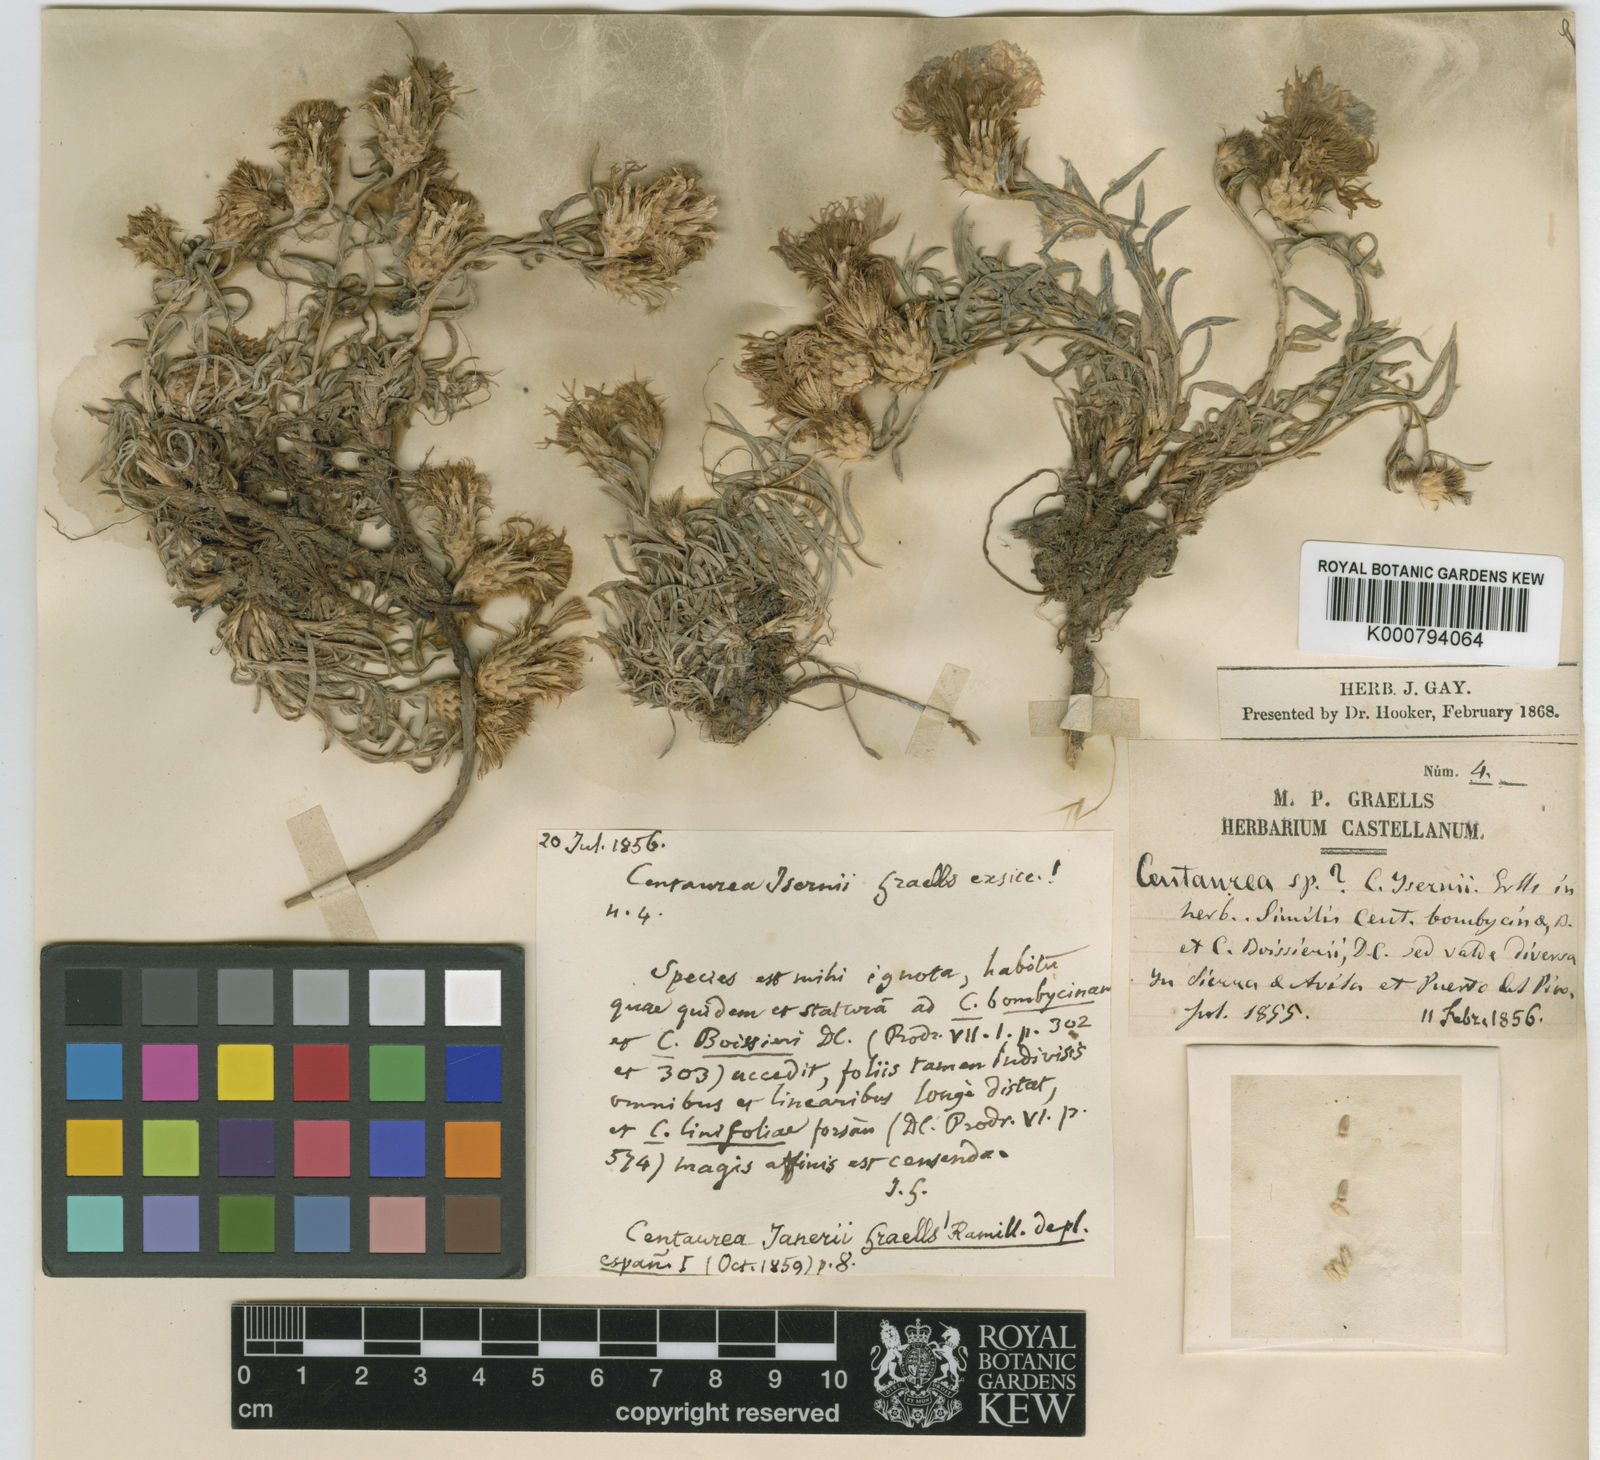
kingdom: Plantae
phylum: Tracheophyta
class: Magnoliopsida
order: Asterales
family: Asteraceae
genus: Centaurea
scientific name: Centaurea janeri
